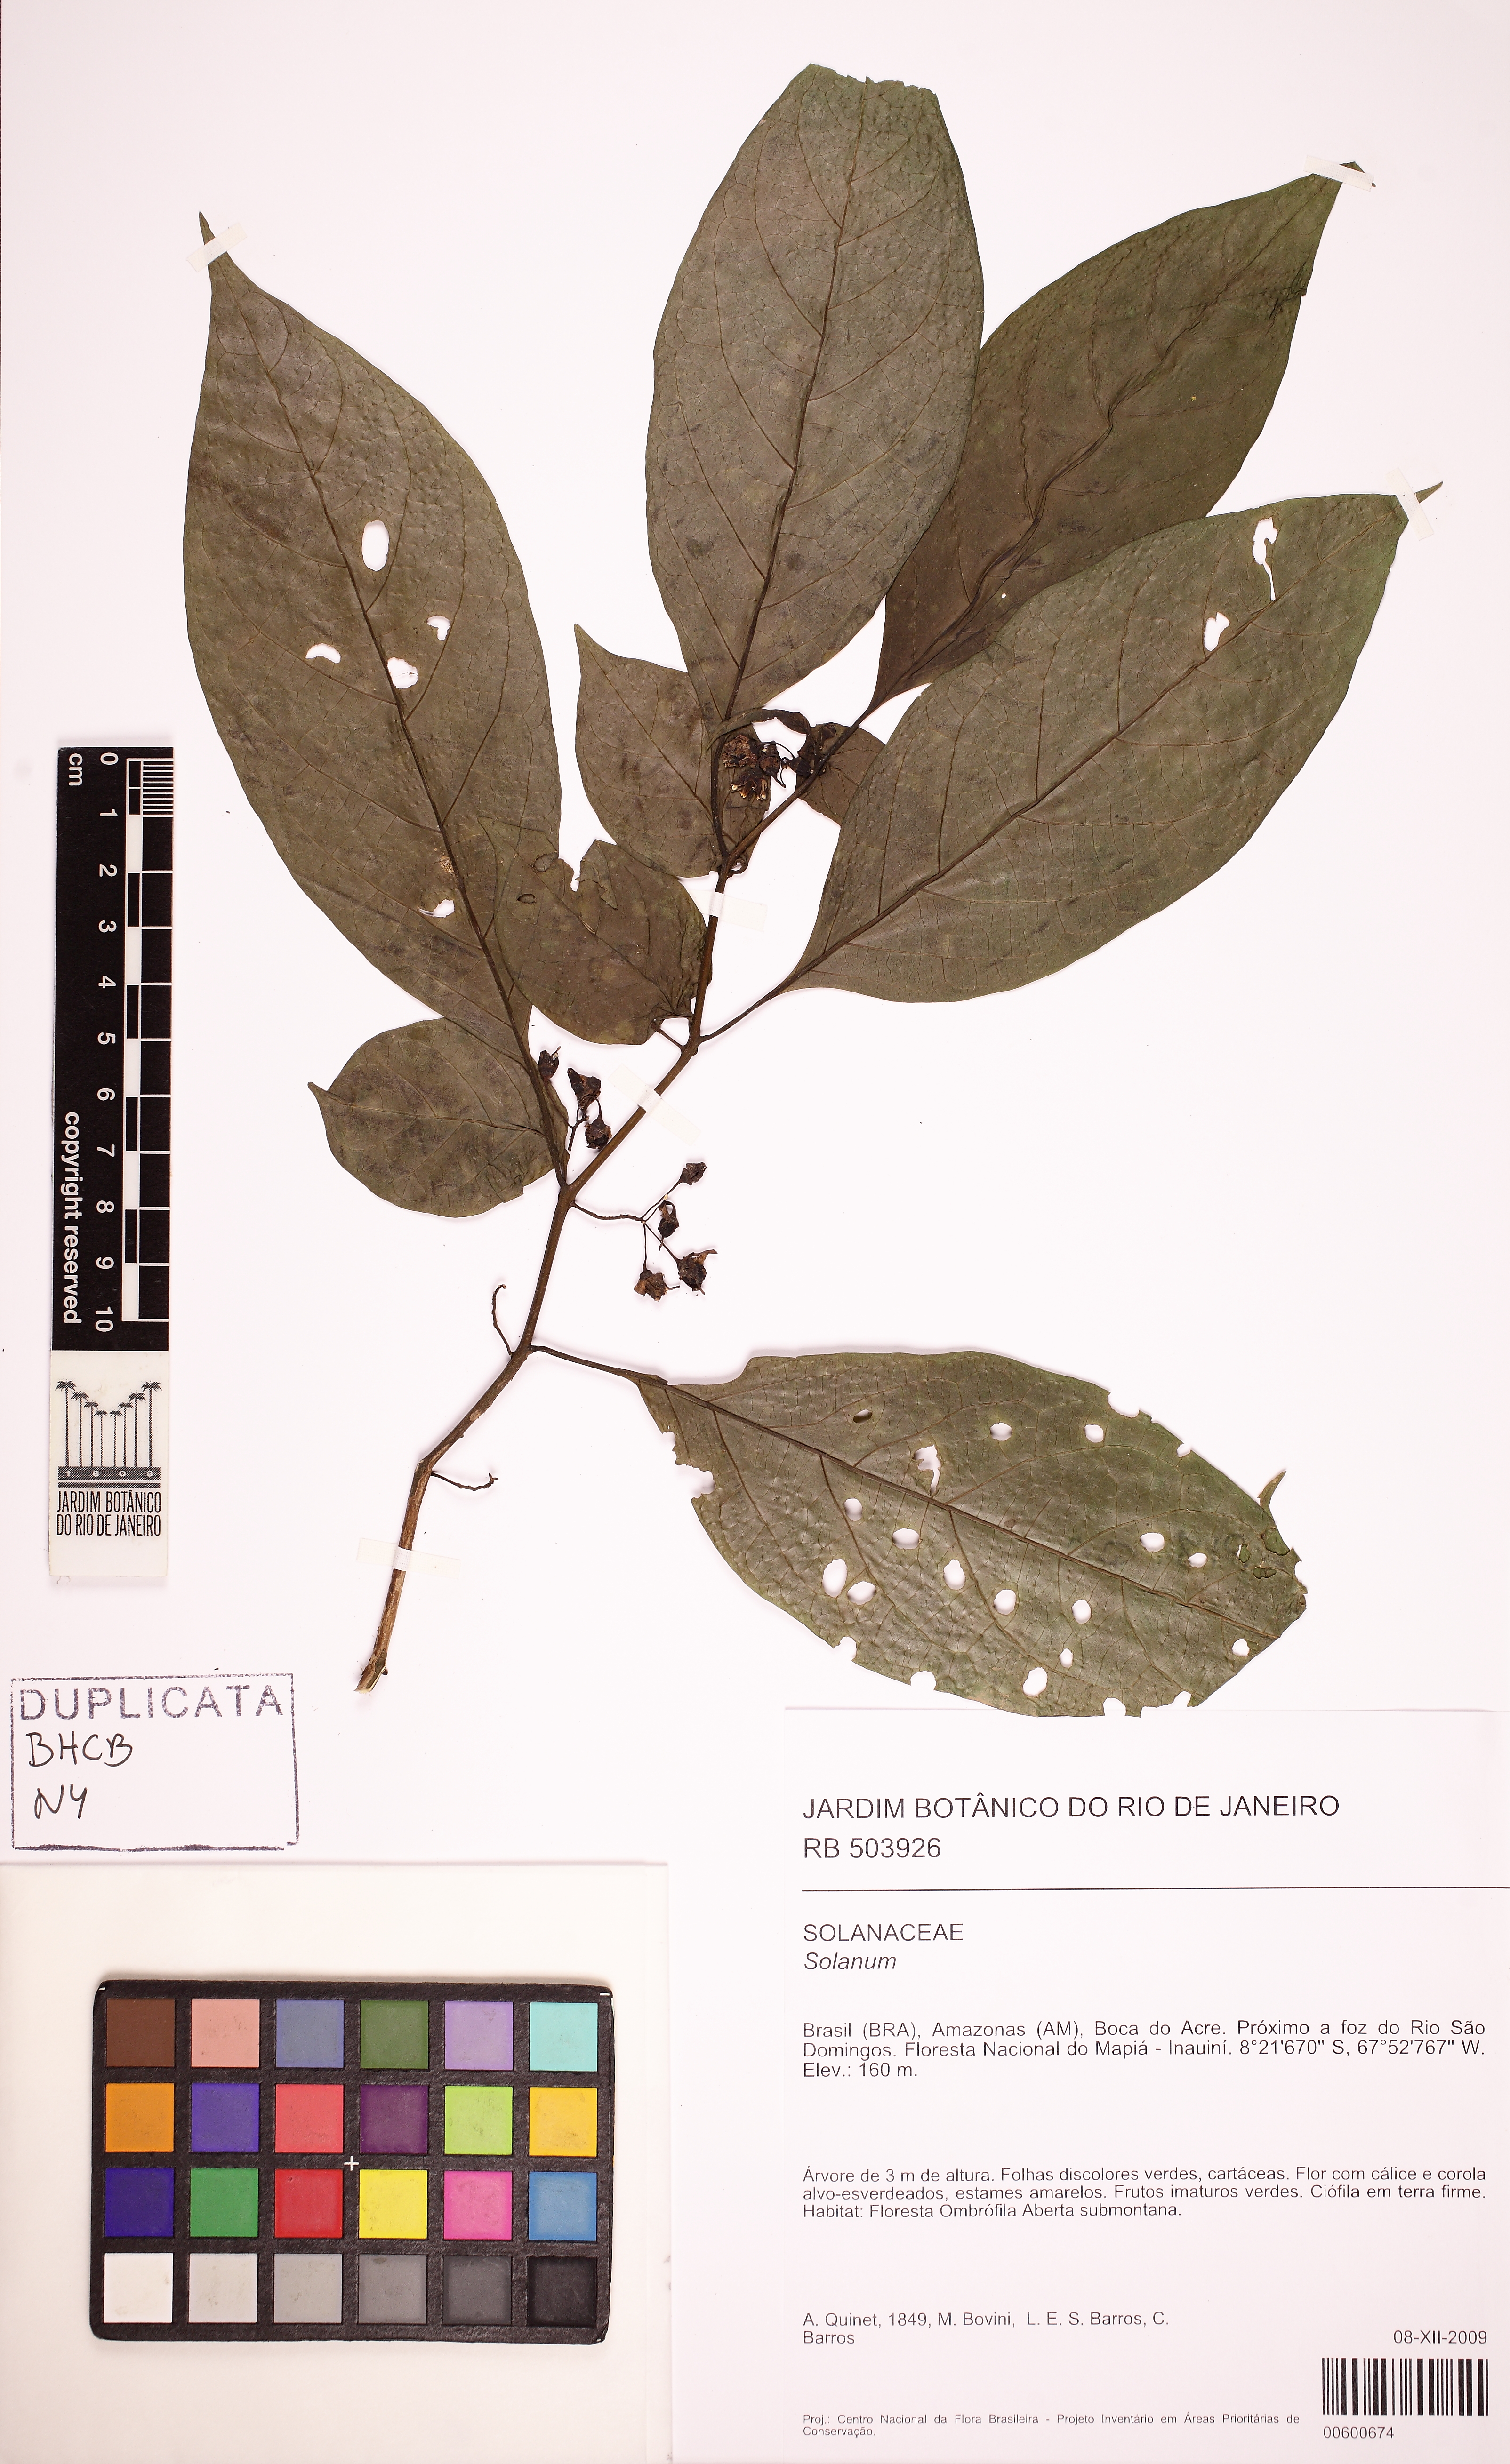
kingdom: Plantae
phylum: Tracheophyta
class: Magnoliopsida
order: Solanales
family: Solanaceae
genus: Solanum
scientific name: Solanum leucocarpon
